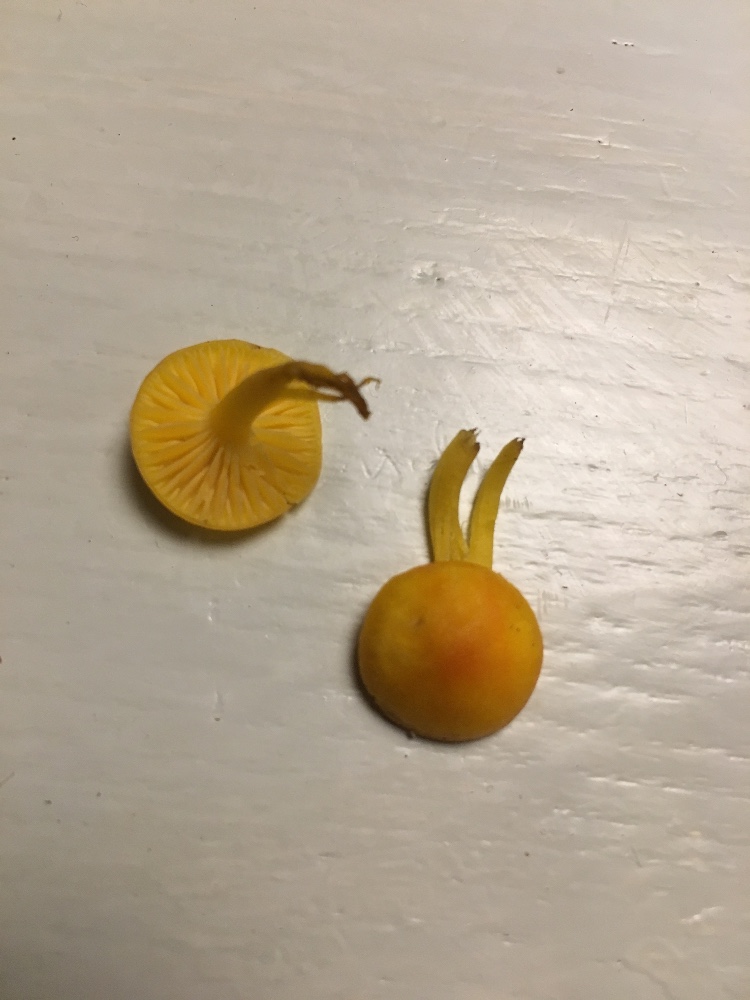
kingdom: Fungi
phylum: Basidiomycota
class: Agaricomycetes
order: Agaricales
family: Hygrophoraceae
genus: Hygrocybe
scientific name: Hygrocybe ceracea
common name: voksgul vokshat
